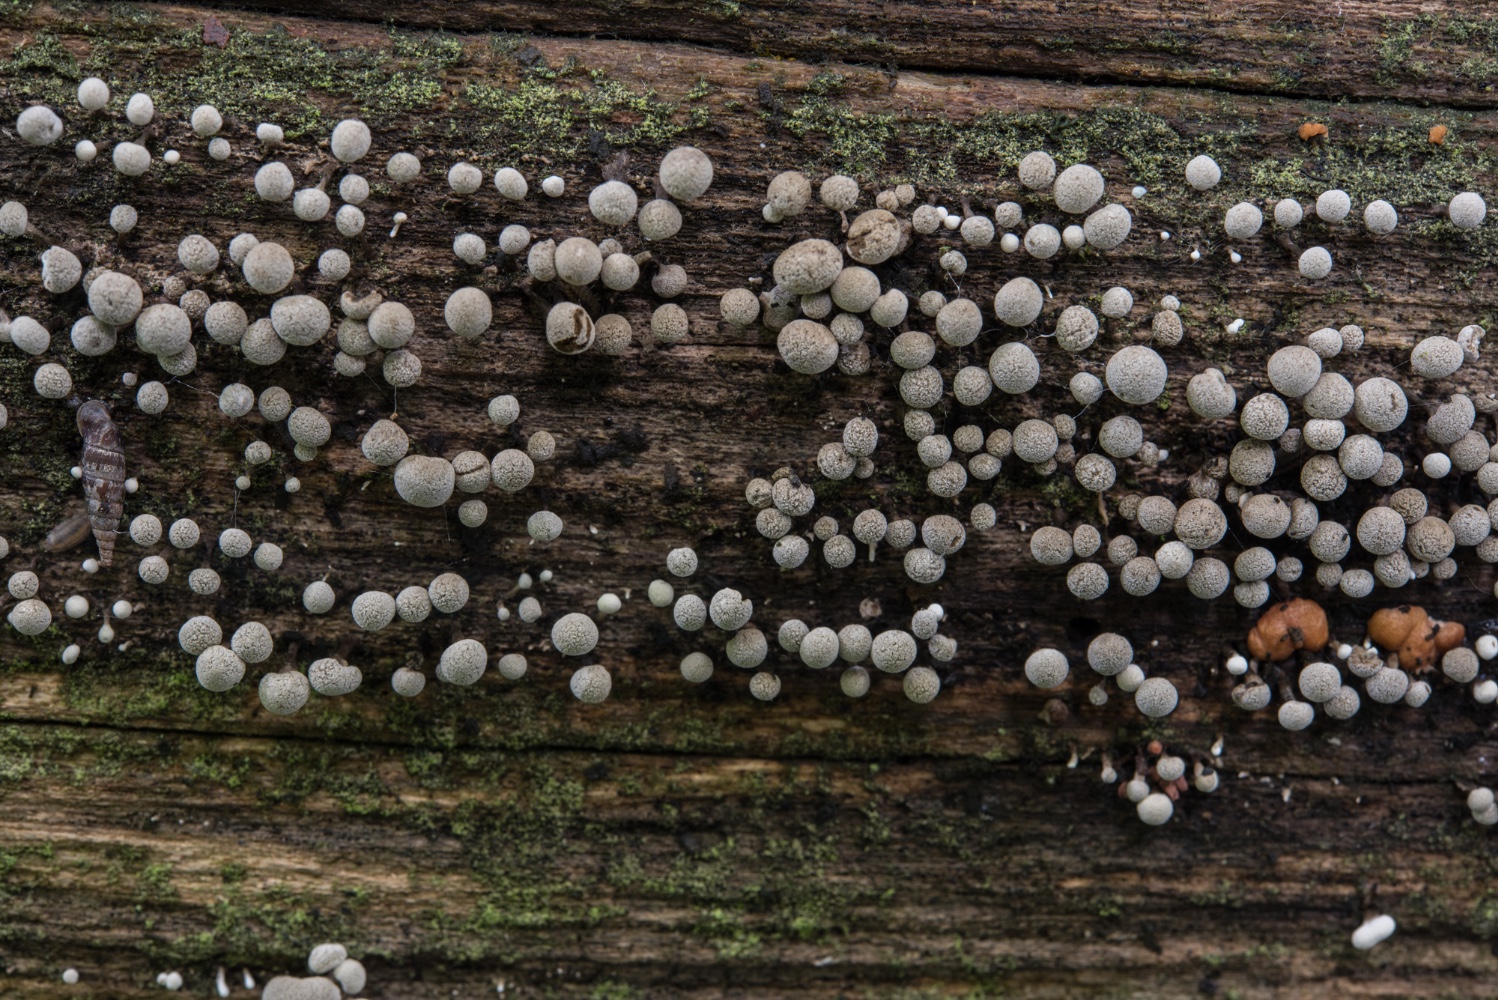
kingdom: Fungi
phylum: Basidiomycota
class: Atractiellomycetes
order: Atractiellales
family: Phleogenaceae
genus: Phleogena
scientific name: Phleogena faginea
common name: pudderkølle
